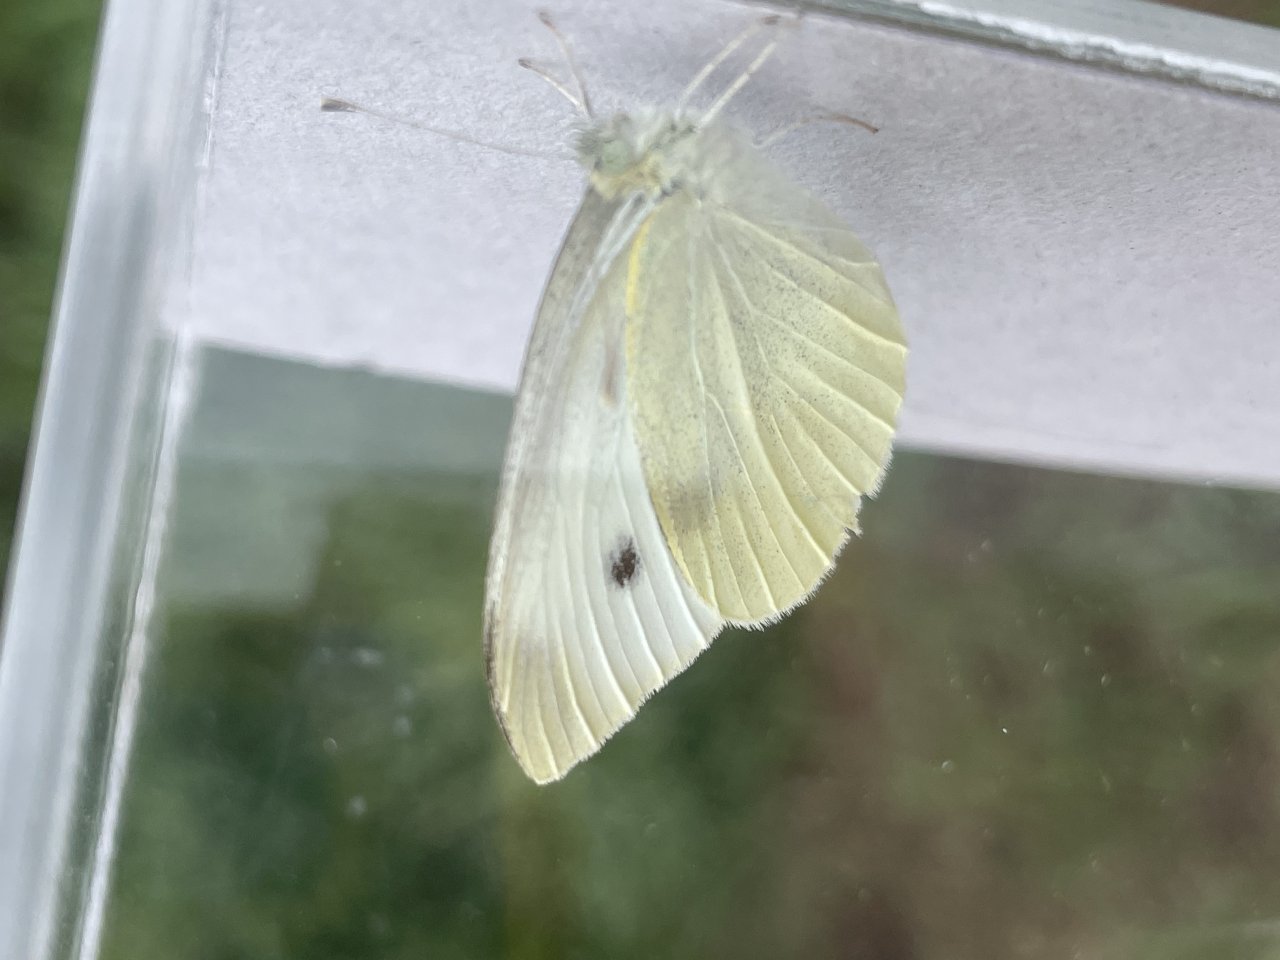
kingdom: Animalia
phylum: Arthropoda
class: Insecta
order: Lepidoptera
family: Pieridae
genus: Pieris
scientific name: Pieris rapae
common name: Cabbage White
